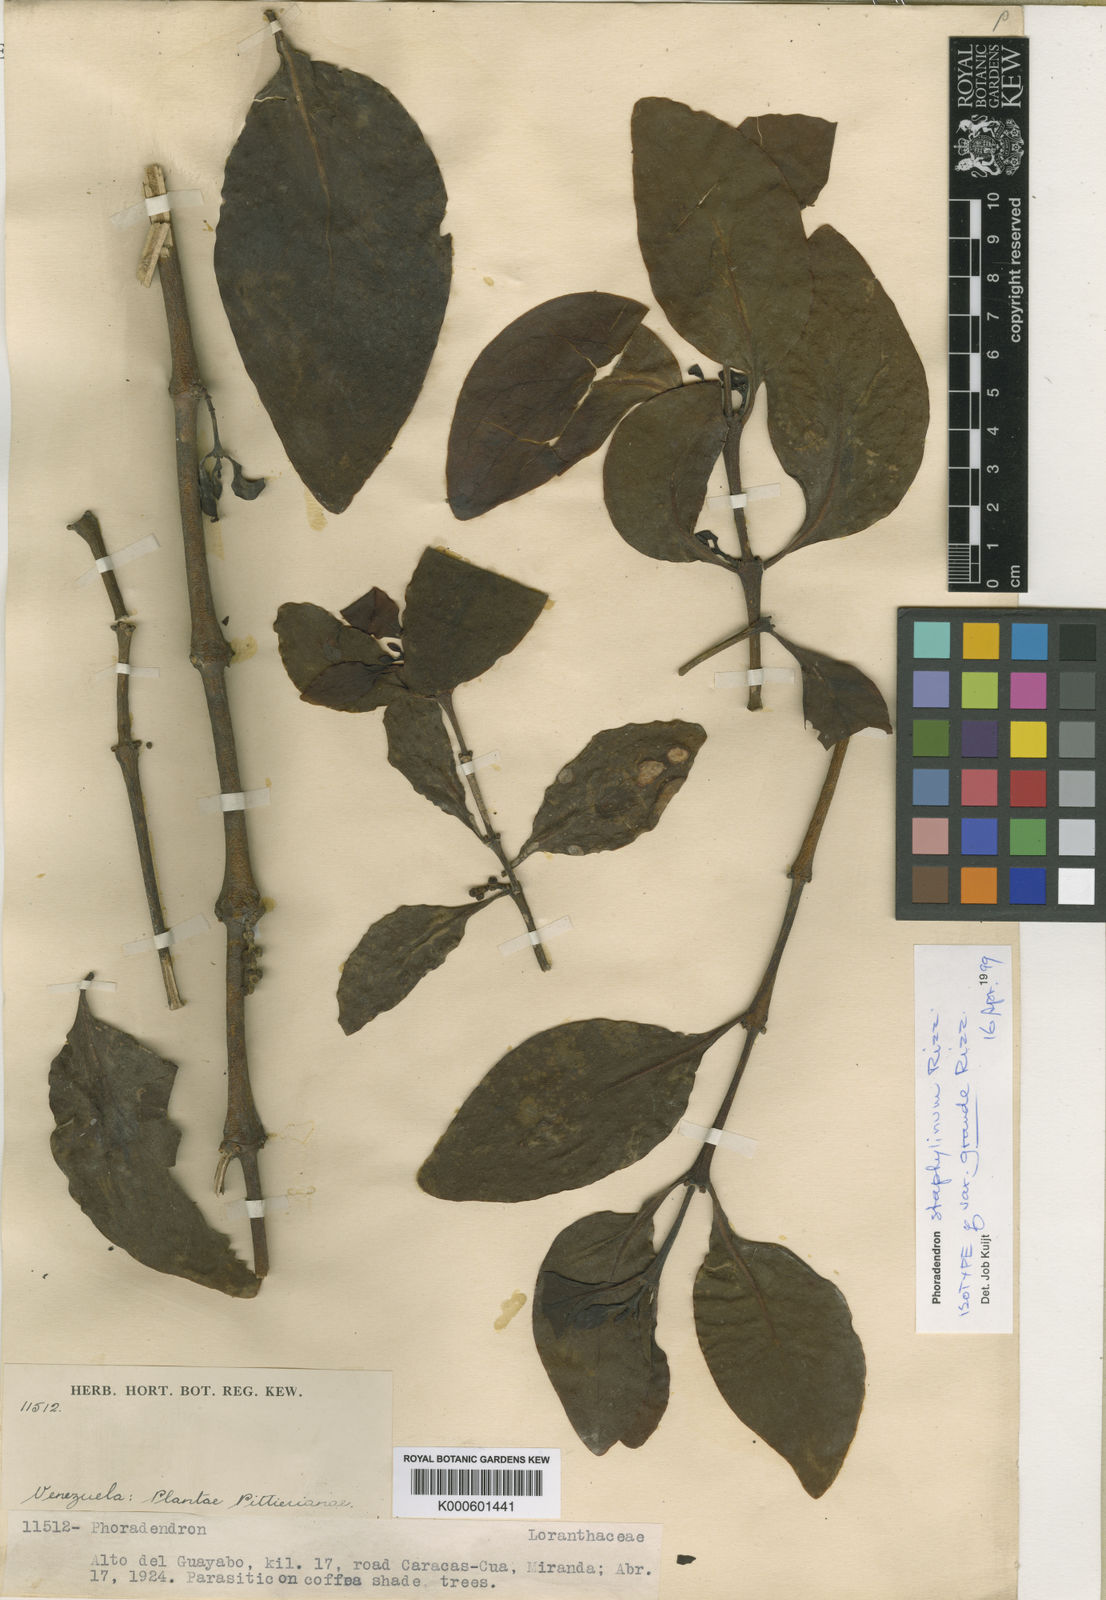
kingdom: Plantae
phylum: Tracheophyta
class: Magnoliopsida
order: Santalales
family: Viscaceae
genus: Phoradendron
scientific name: Phoradendron staphylinum
